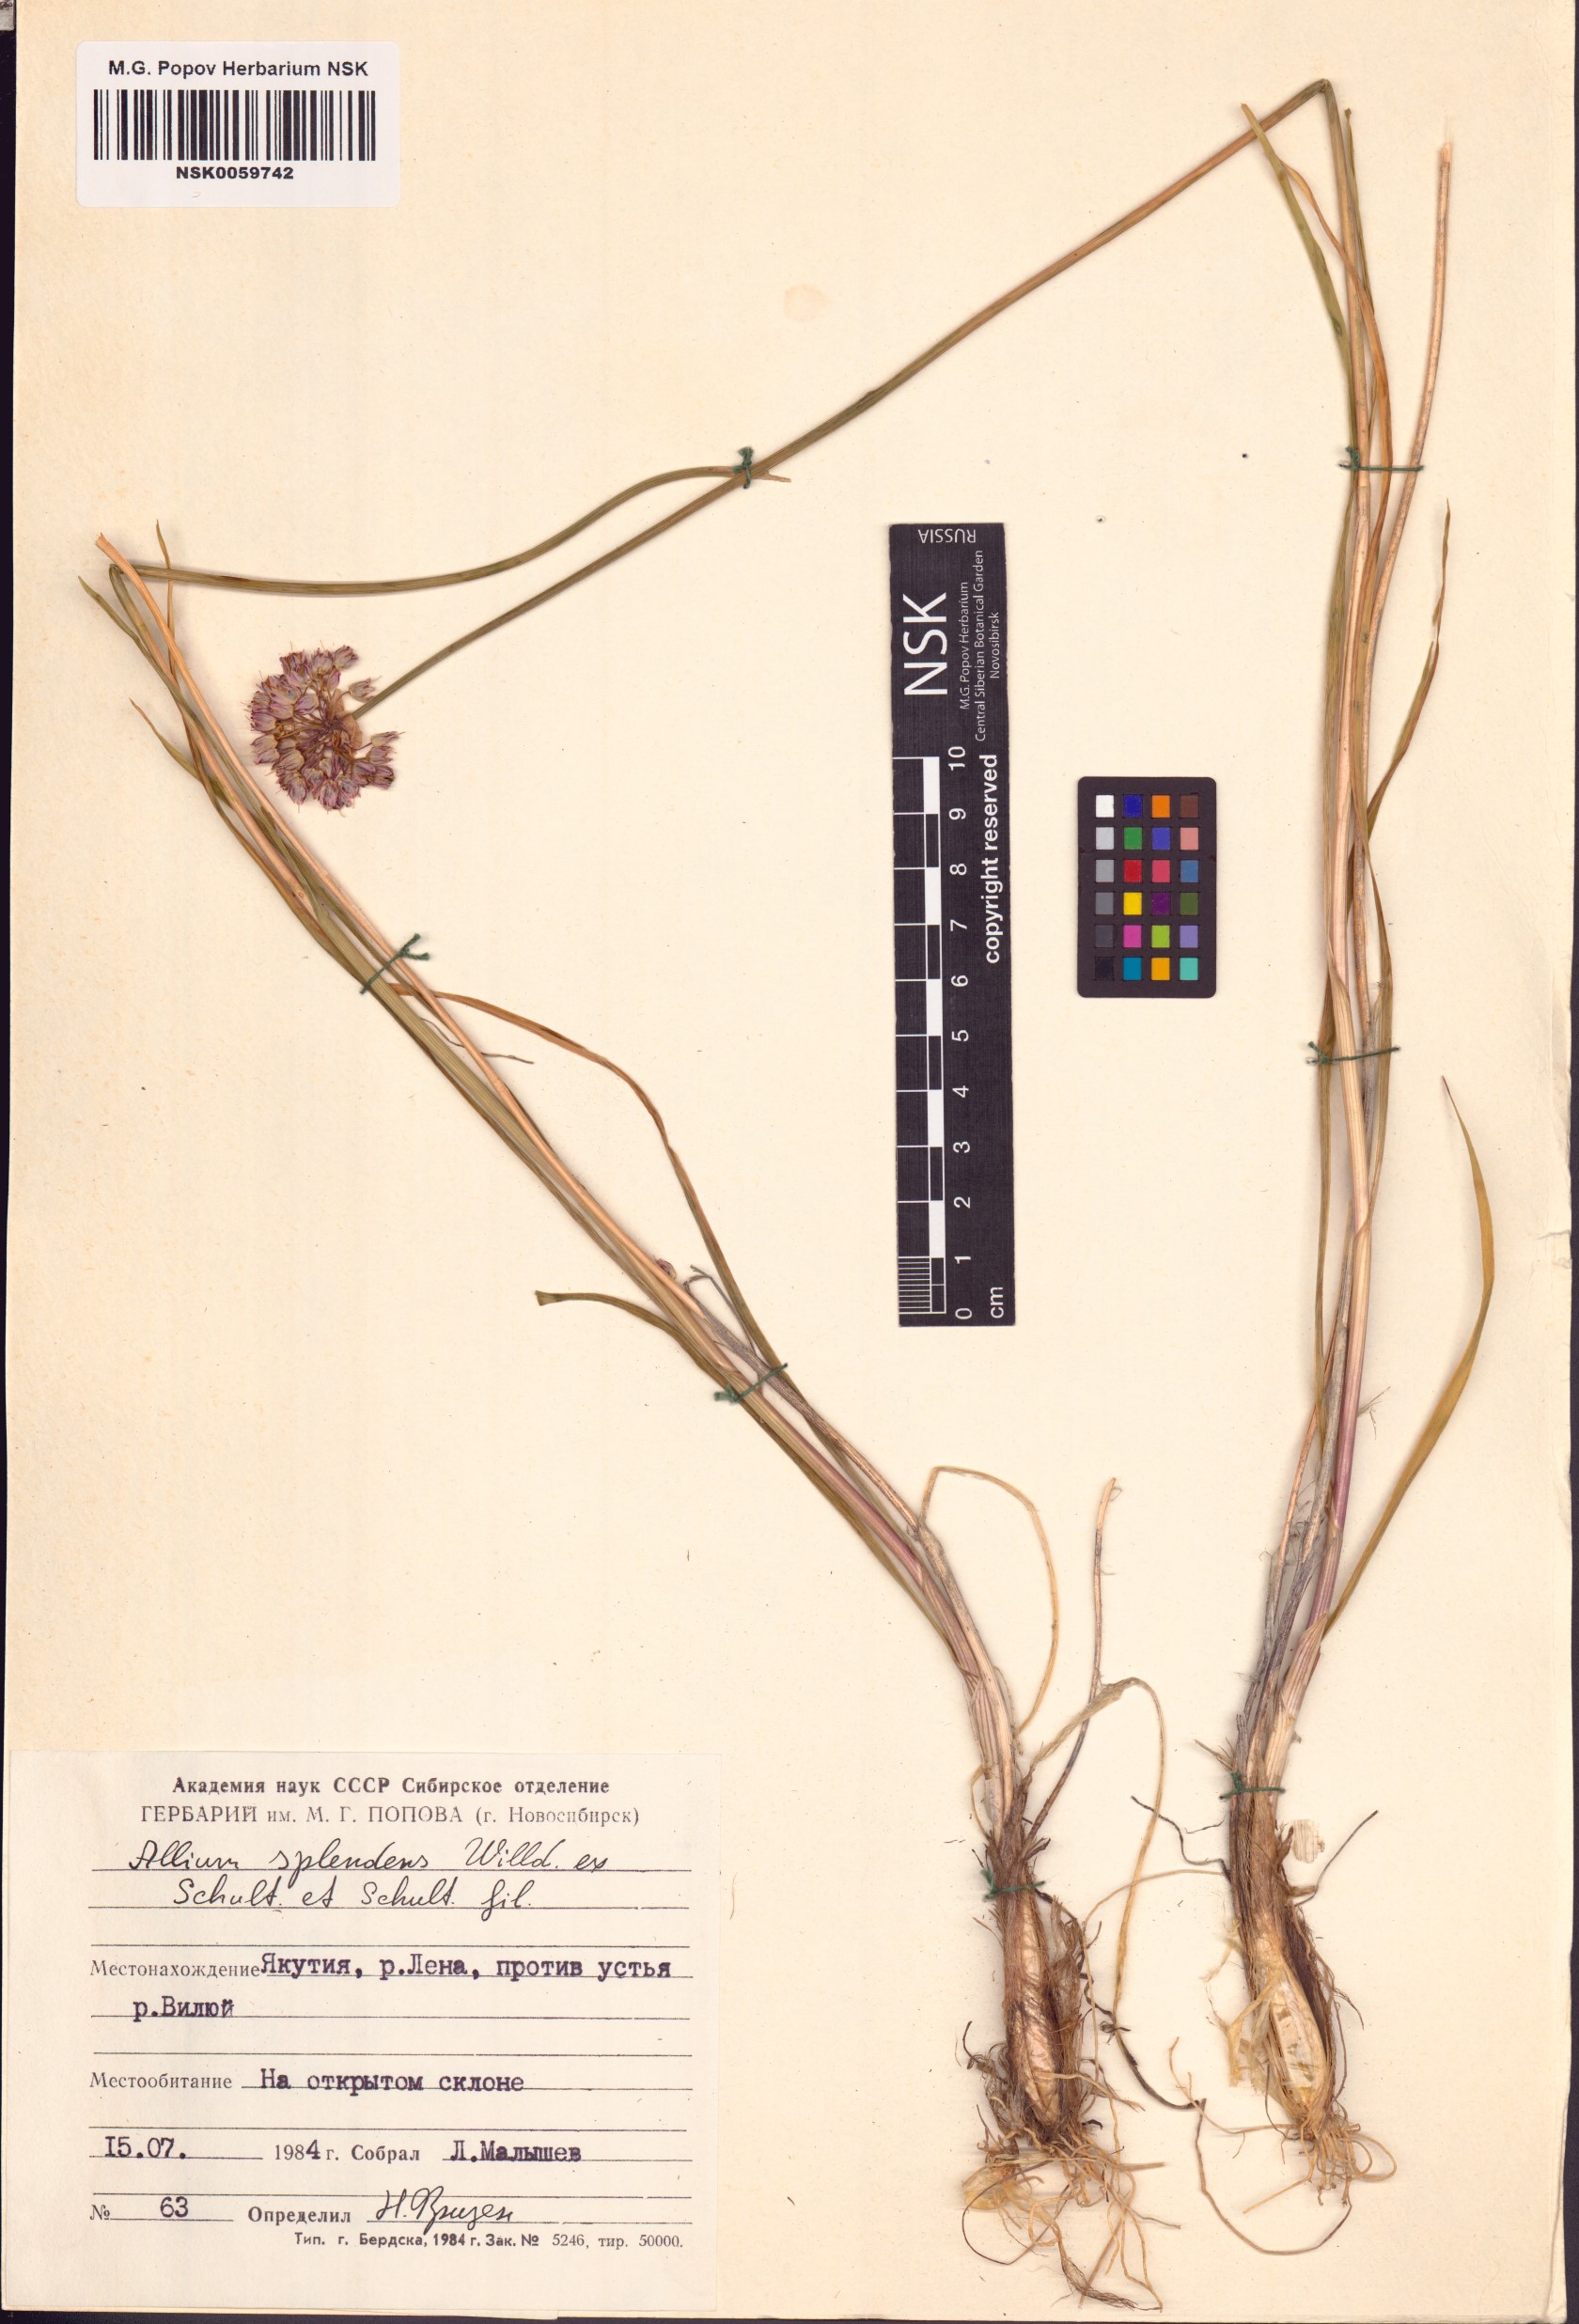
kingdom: Plantae
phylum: Tracheophyta
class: Liliopsida
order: Asparagales
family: Amaryllidaceae
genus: Allium
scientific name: Allium splendens
